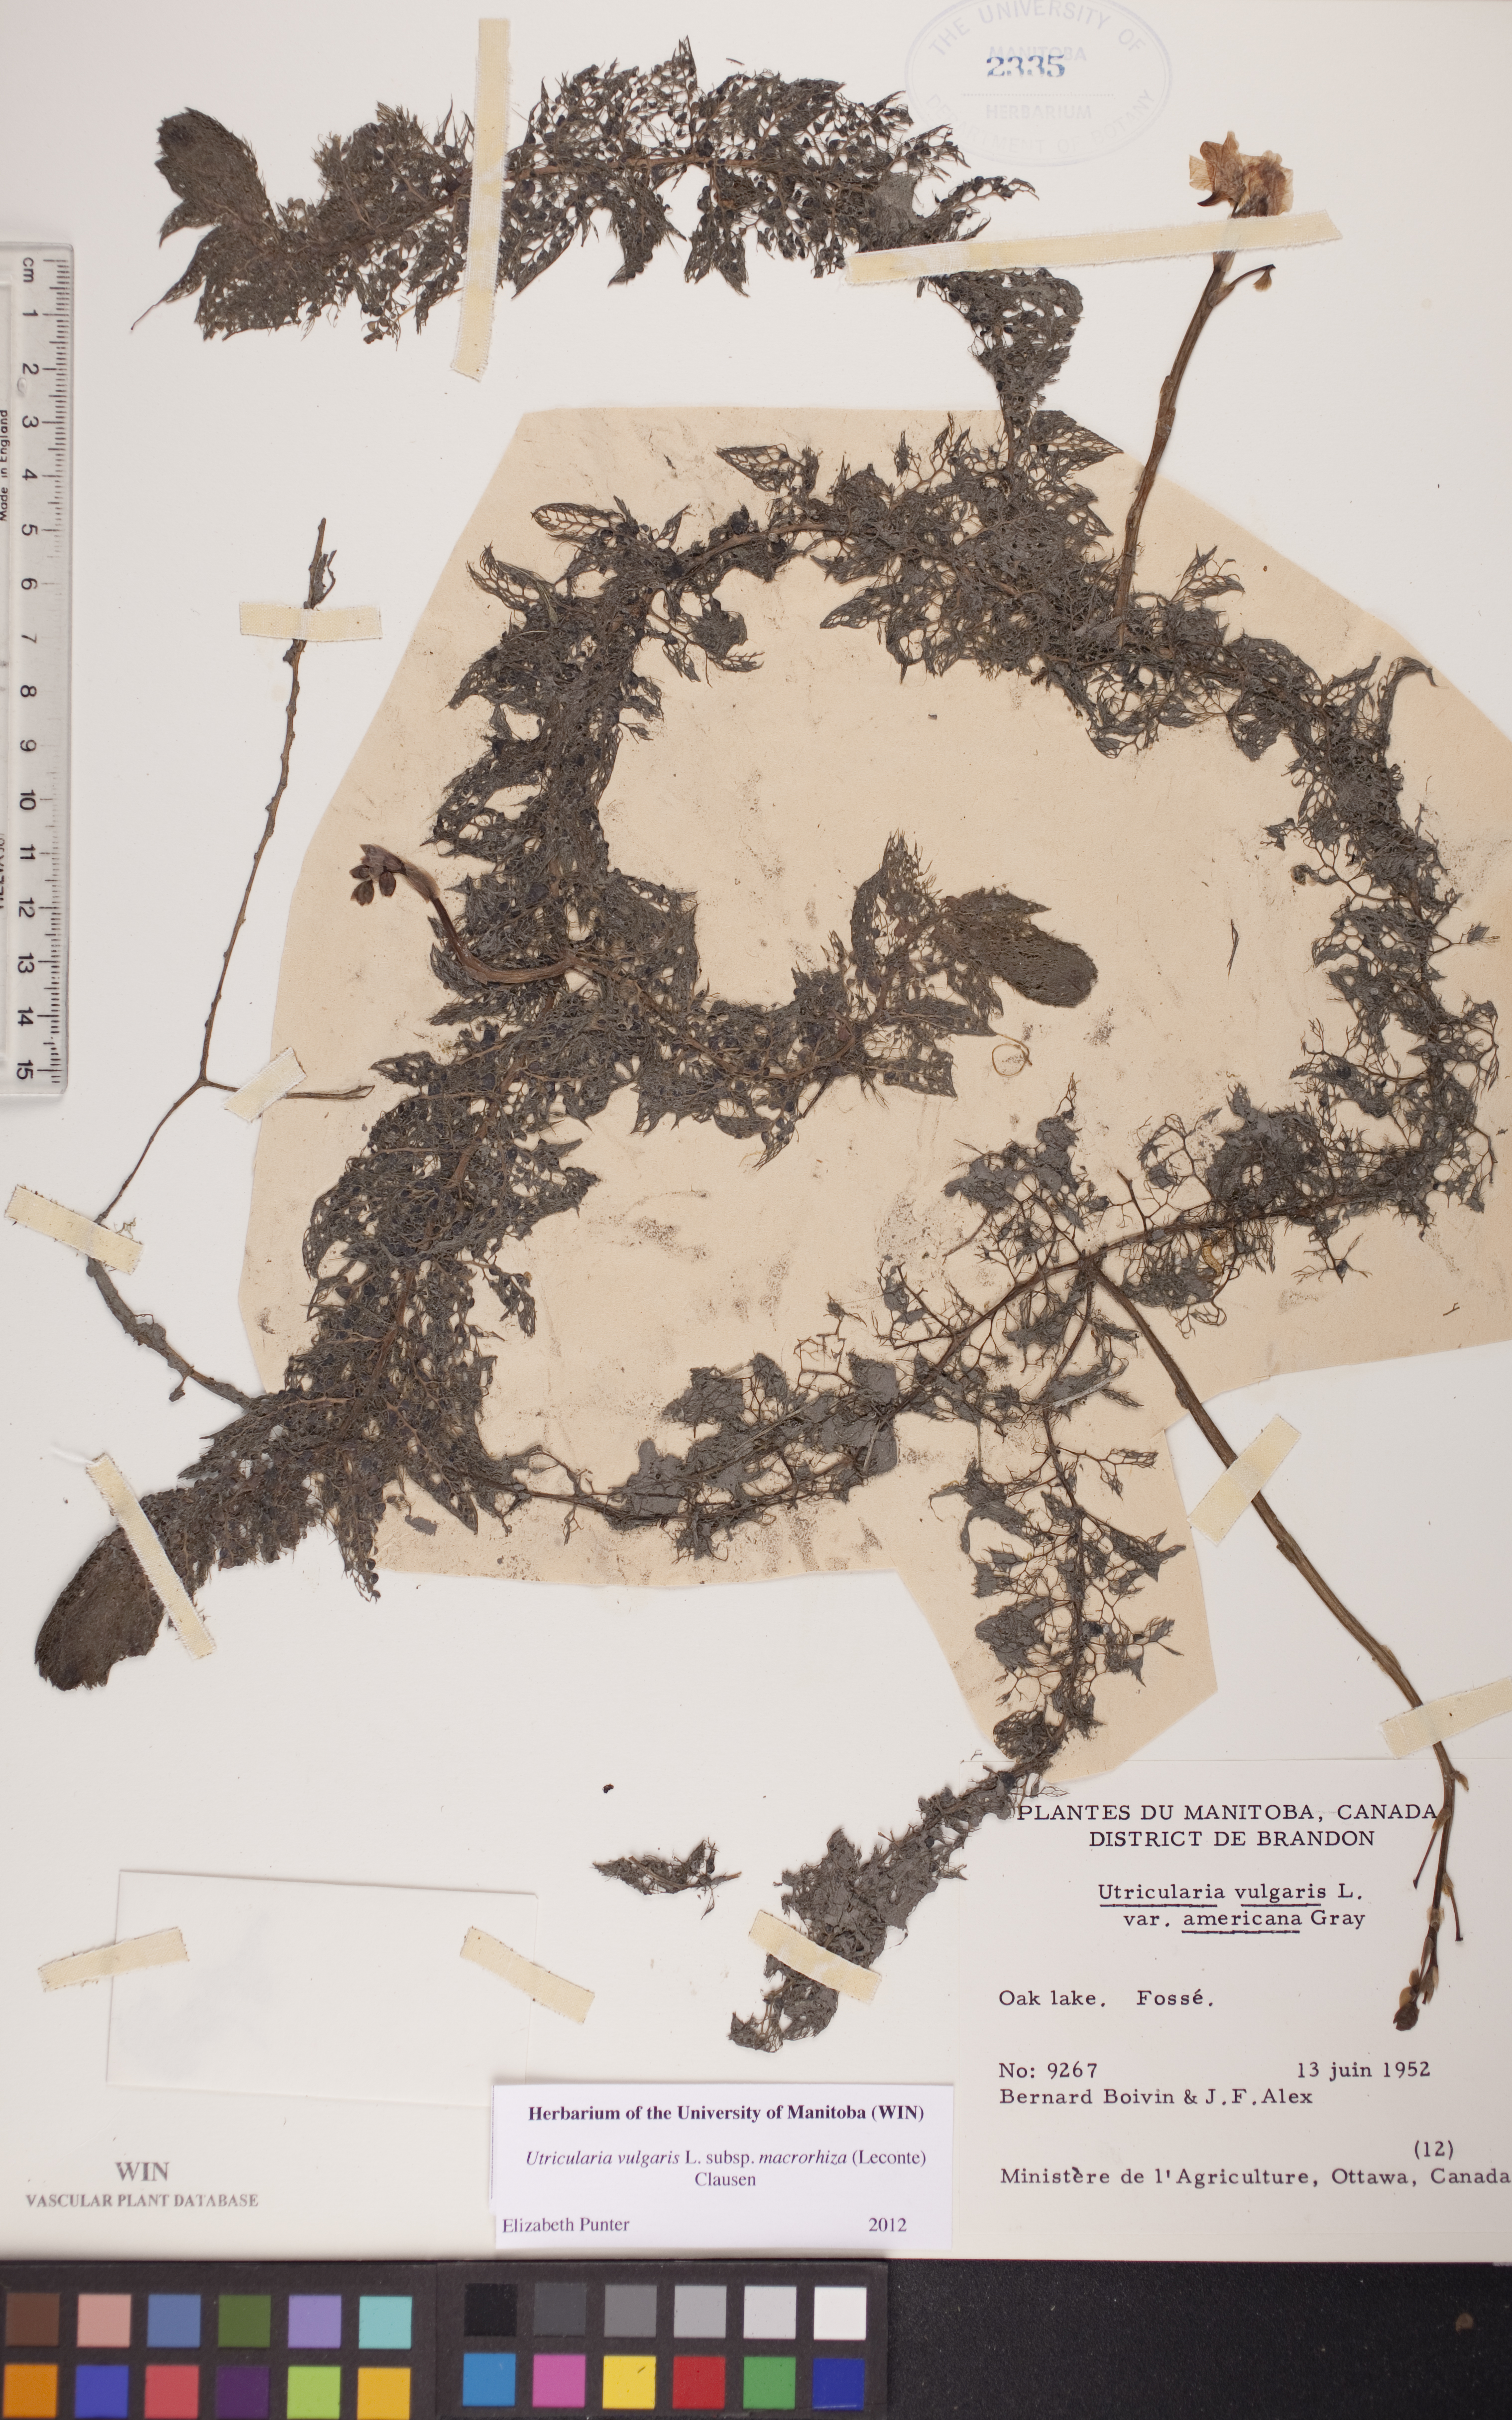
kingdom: Plantae
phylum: Tracheophyta
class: Magnoliopsida
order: Lamiales
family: Lentibulariaceae
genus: Utricularia
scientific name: Utricularia macrorhiza
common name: Common bladderwort
